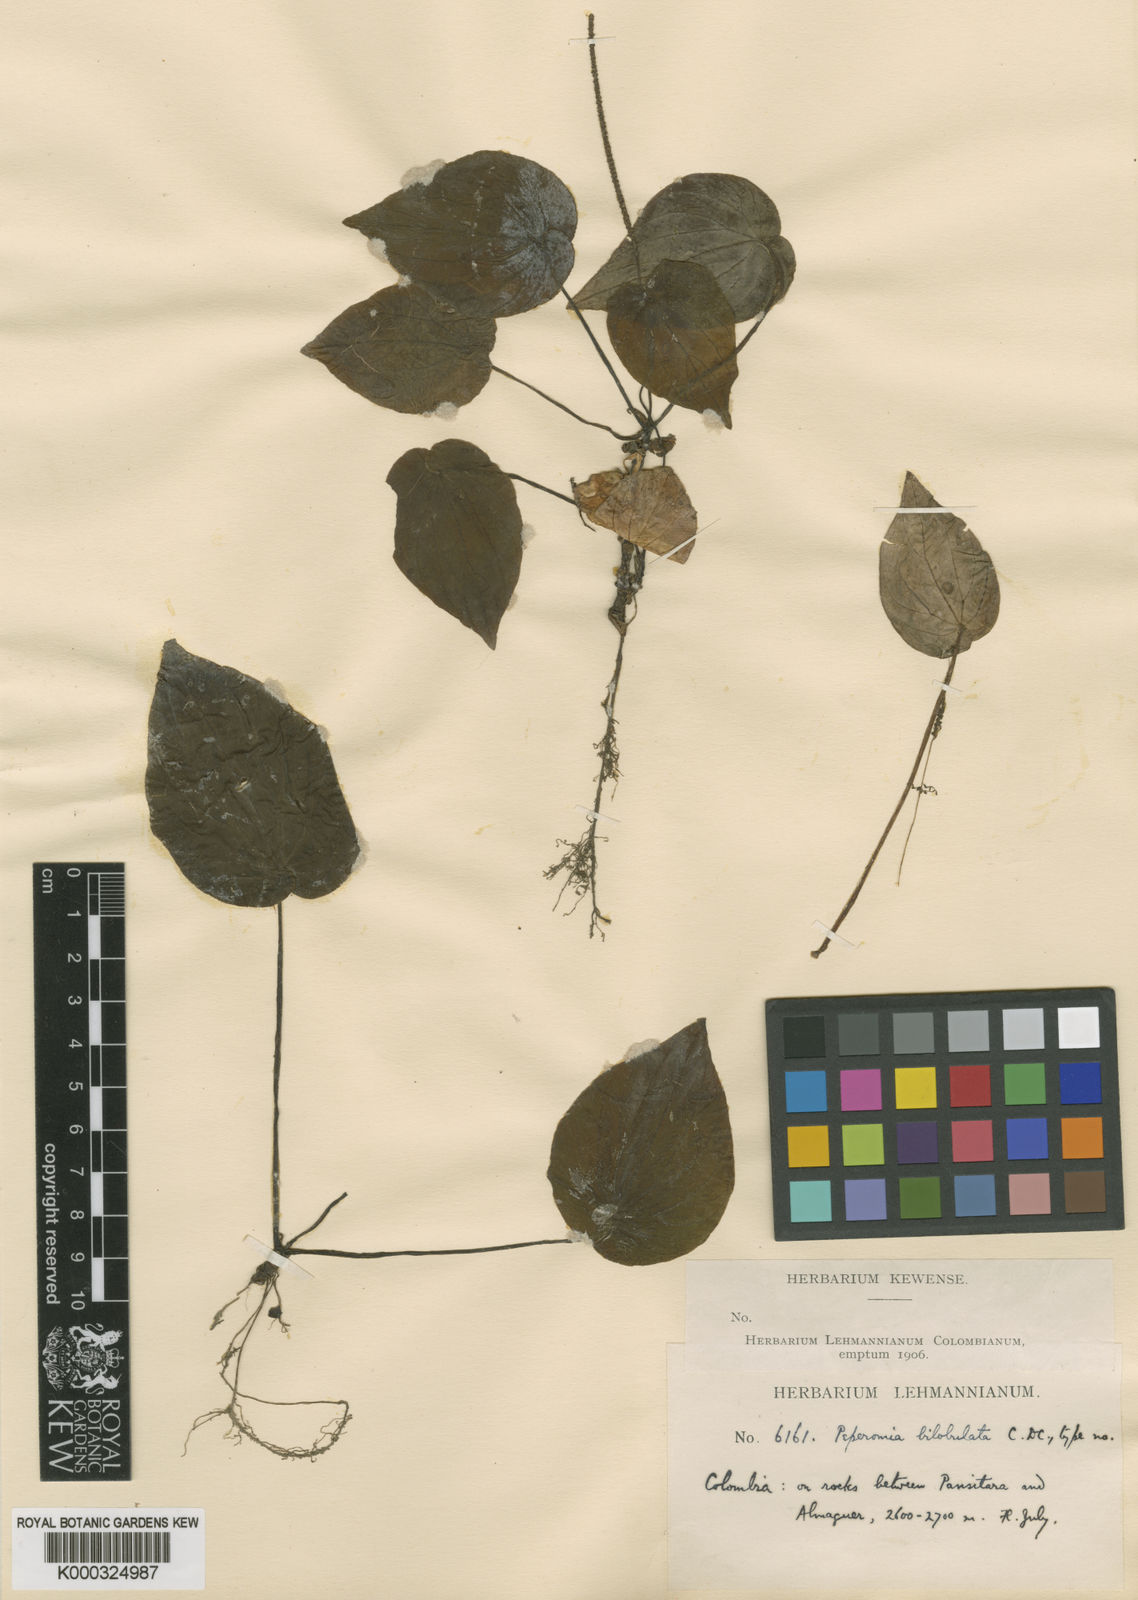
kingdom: Plantae
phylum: Tracheophyta
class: Magnoliopsida
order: Piperales
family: Piperaceae
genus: Peperomia
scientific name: Peperomia bilobulata
